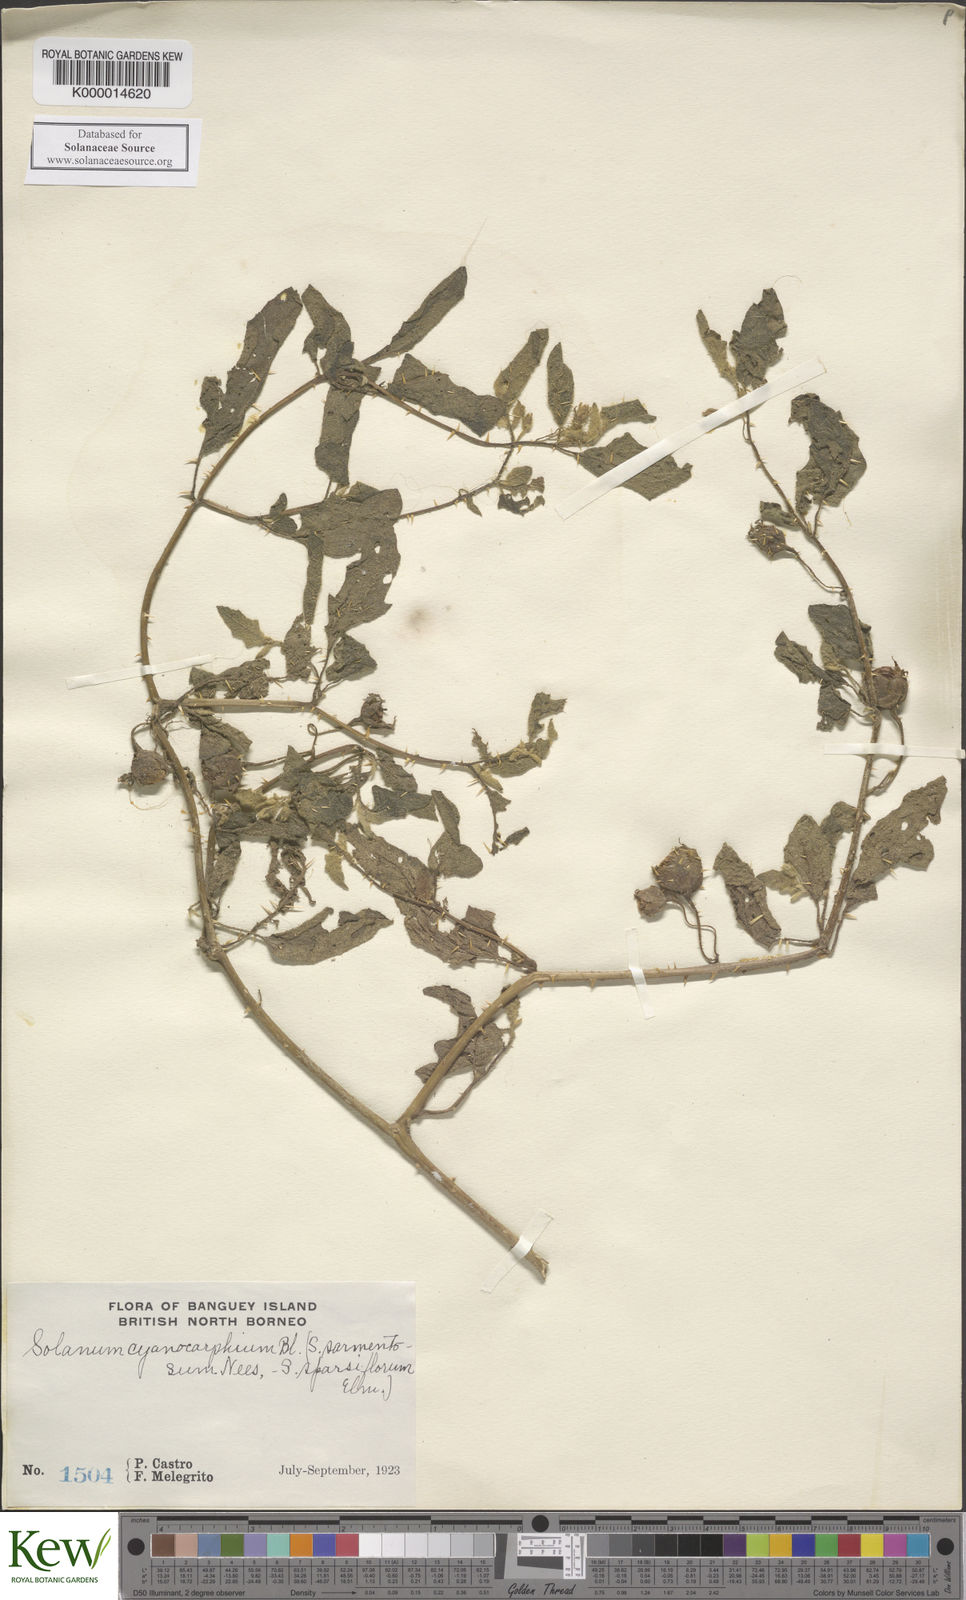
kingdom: Plantae
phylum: Tracheophyta
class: Magnoliopsida
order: Solanales
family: Solanaceae
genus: Solanum
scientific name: Solanum cyanocarphium
